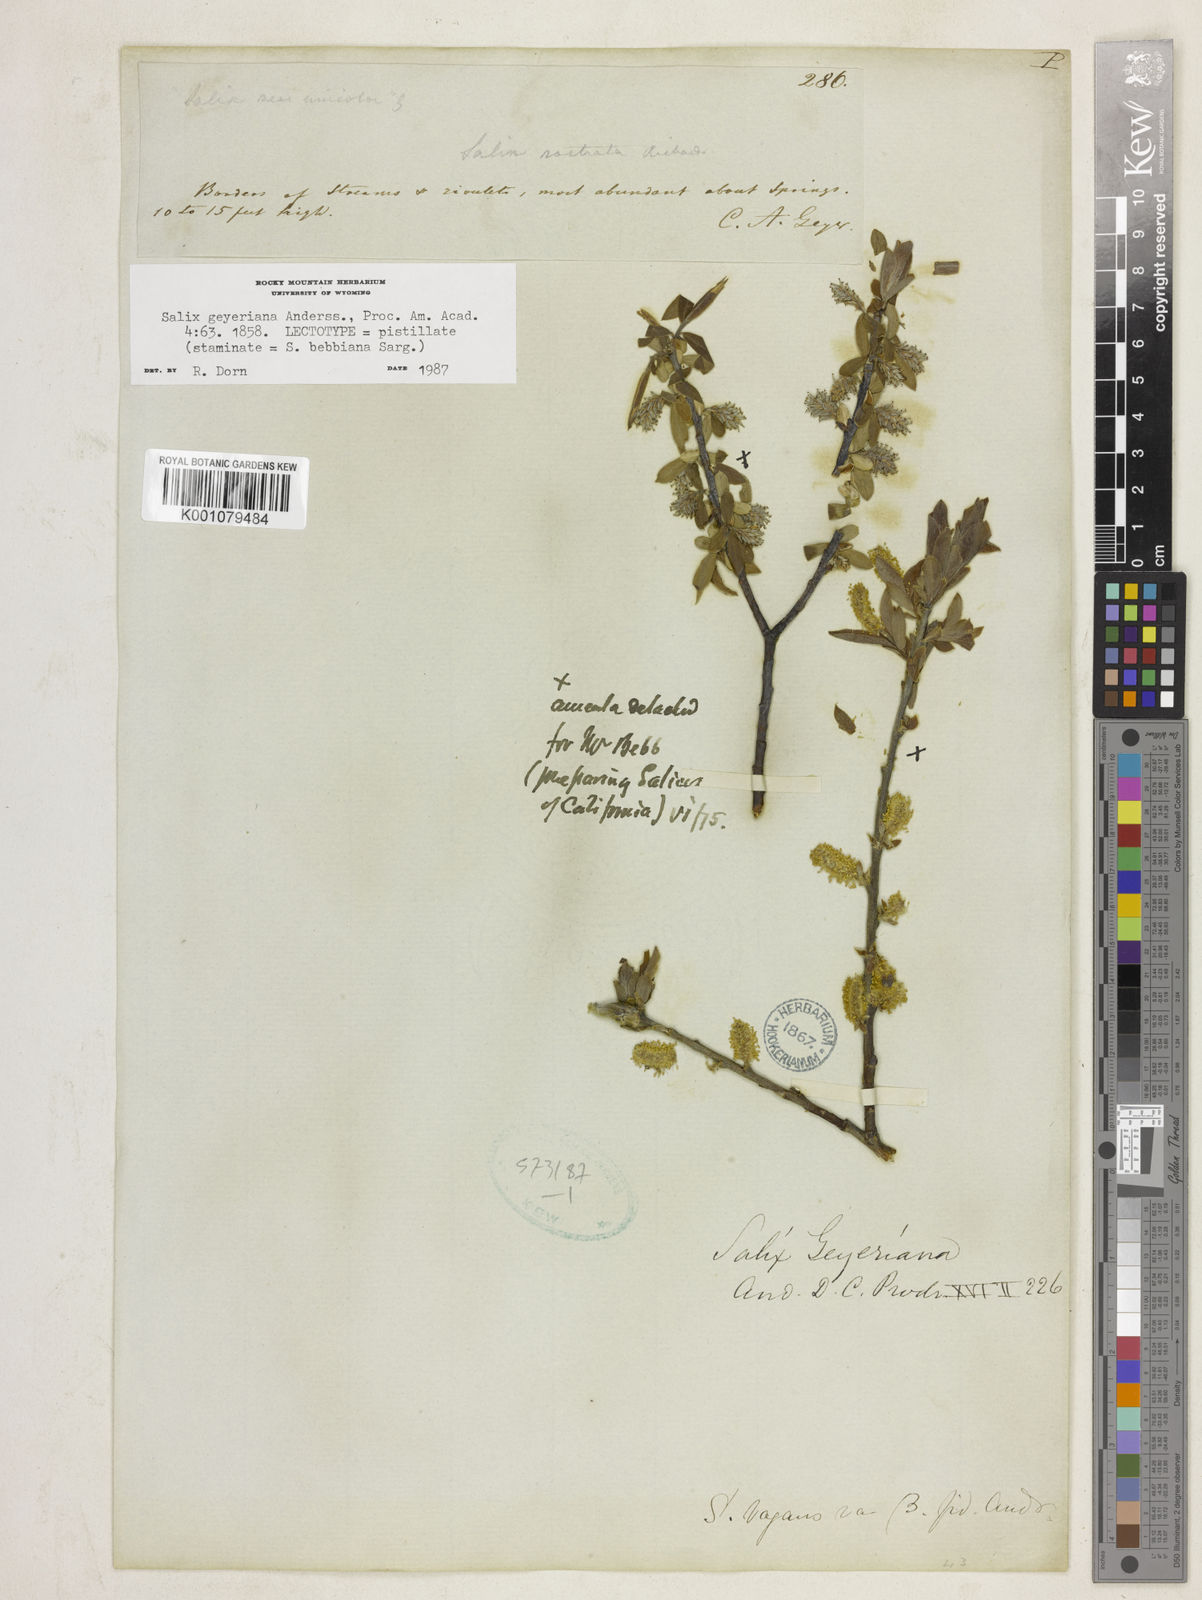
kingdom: Plantae
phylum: Tracheophyta
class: Magnoliopsida
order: Malpighiales
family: Salicaceae
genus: Salix
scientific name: Salix geyeriana
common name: Geyer's willow
